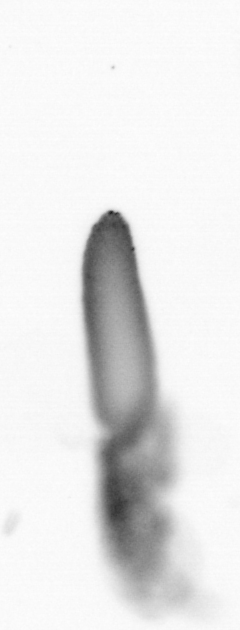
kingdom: Animalia
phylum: Annelida
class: Polychaeta
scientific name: Polychaeta
